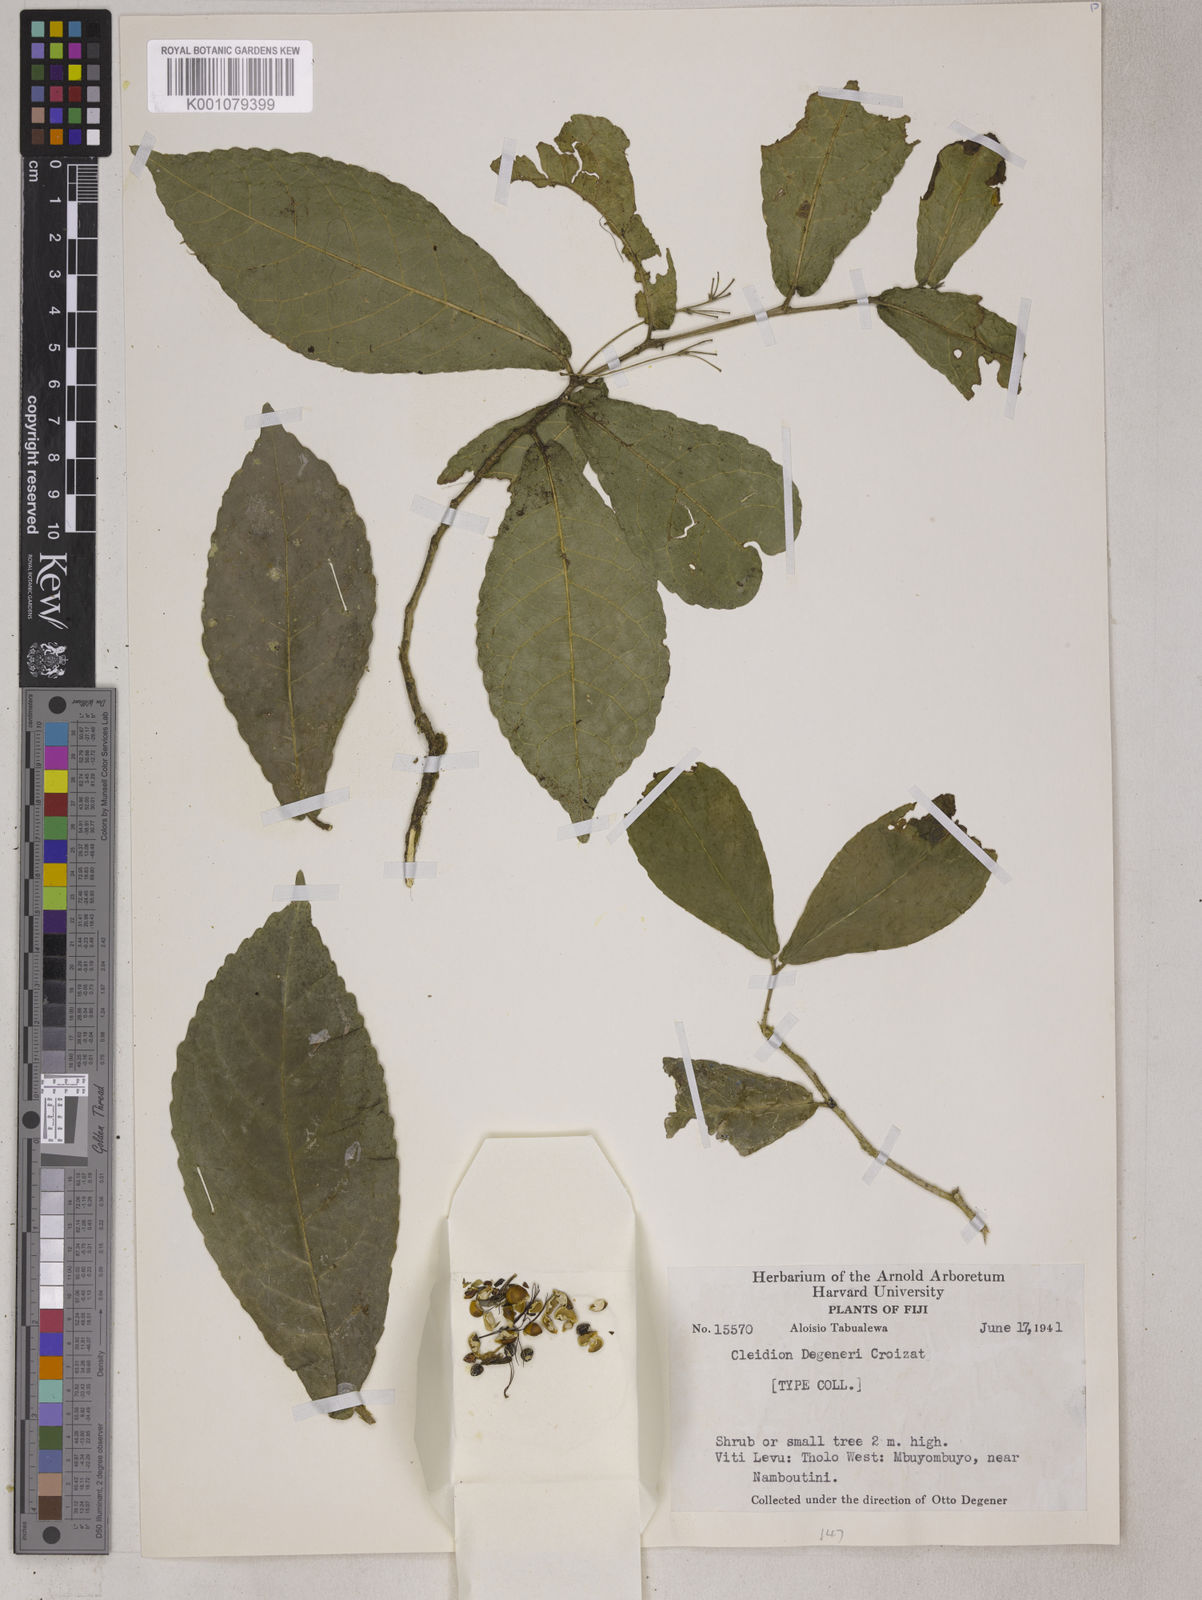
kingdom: Plantae
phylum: Tracheophyta
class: Magnoliopsida
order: Malpighiales
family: Euphorbiaceae
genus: Cleidion
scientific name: Cleidion leptostachyum
